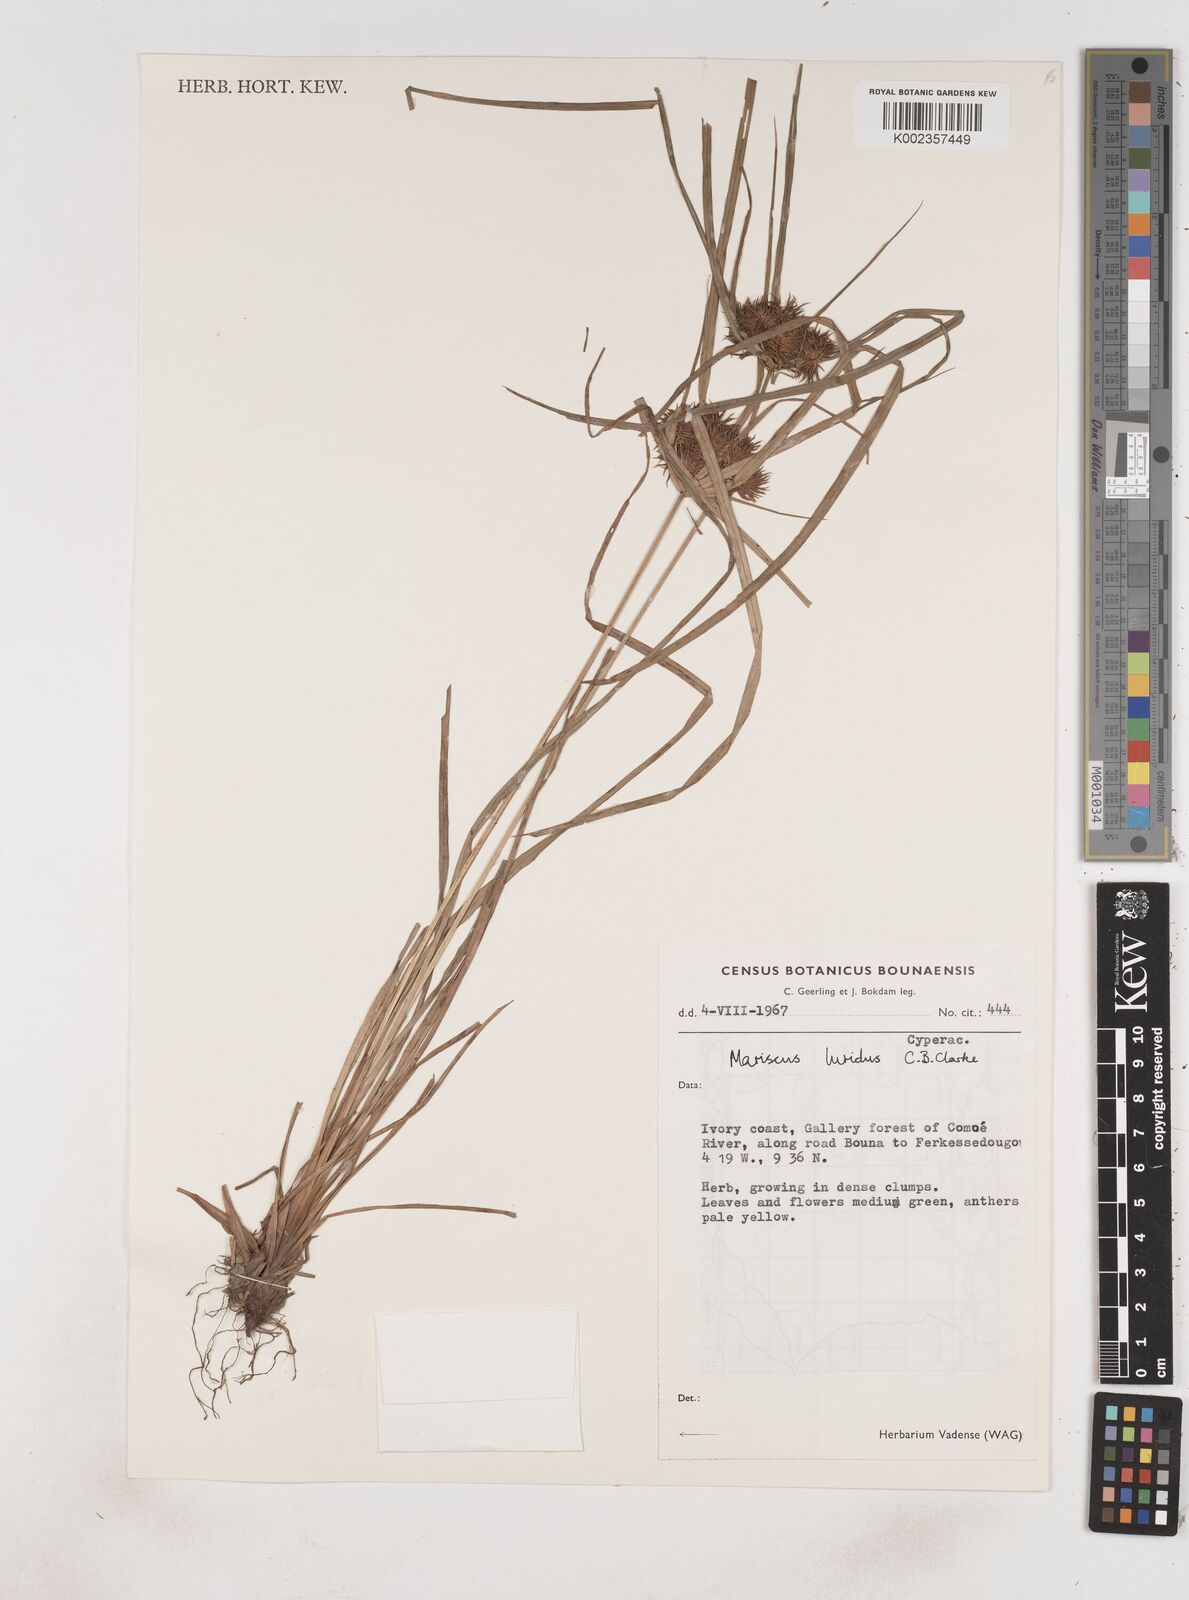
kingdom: Plantae
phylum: Tracheophyta
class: Liliopsida
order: Poales
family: Cyperaceae
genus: Cyperus
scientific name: Cyperus malabaricus
